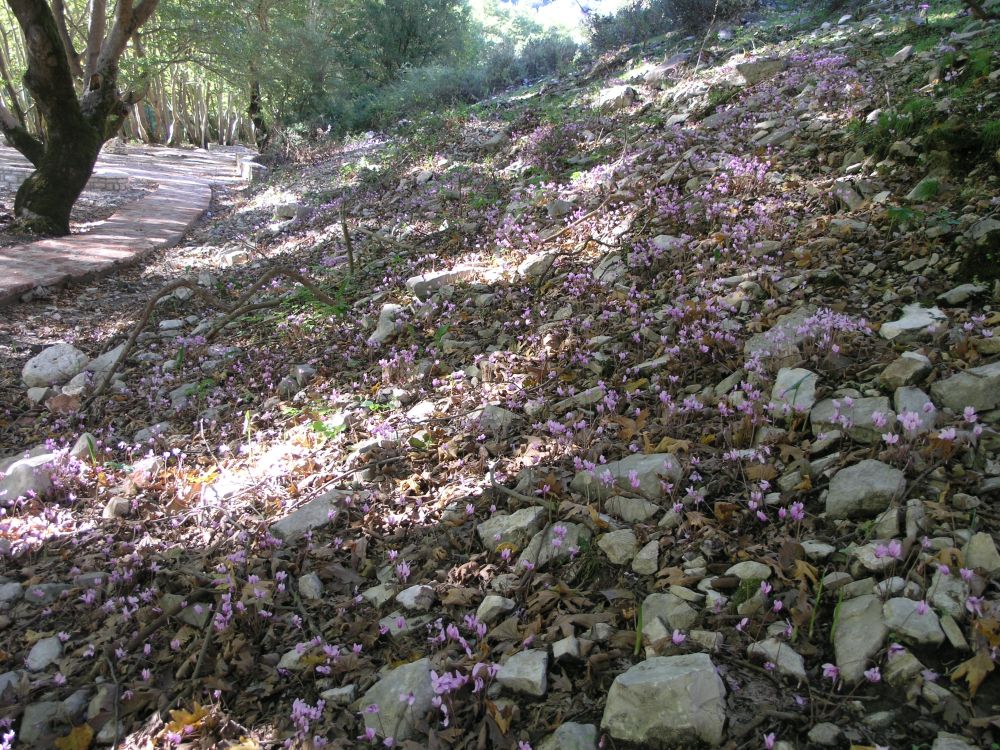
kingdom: Plantae
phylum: Tracheophyta
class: Magnoliopsida
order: Ericales
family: Primulaceae
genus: Cyclamen
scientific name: Cyclamen hederifolium
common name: Sowbread
